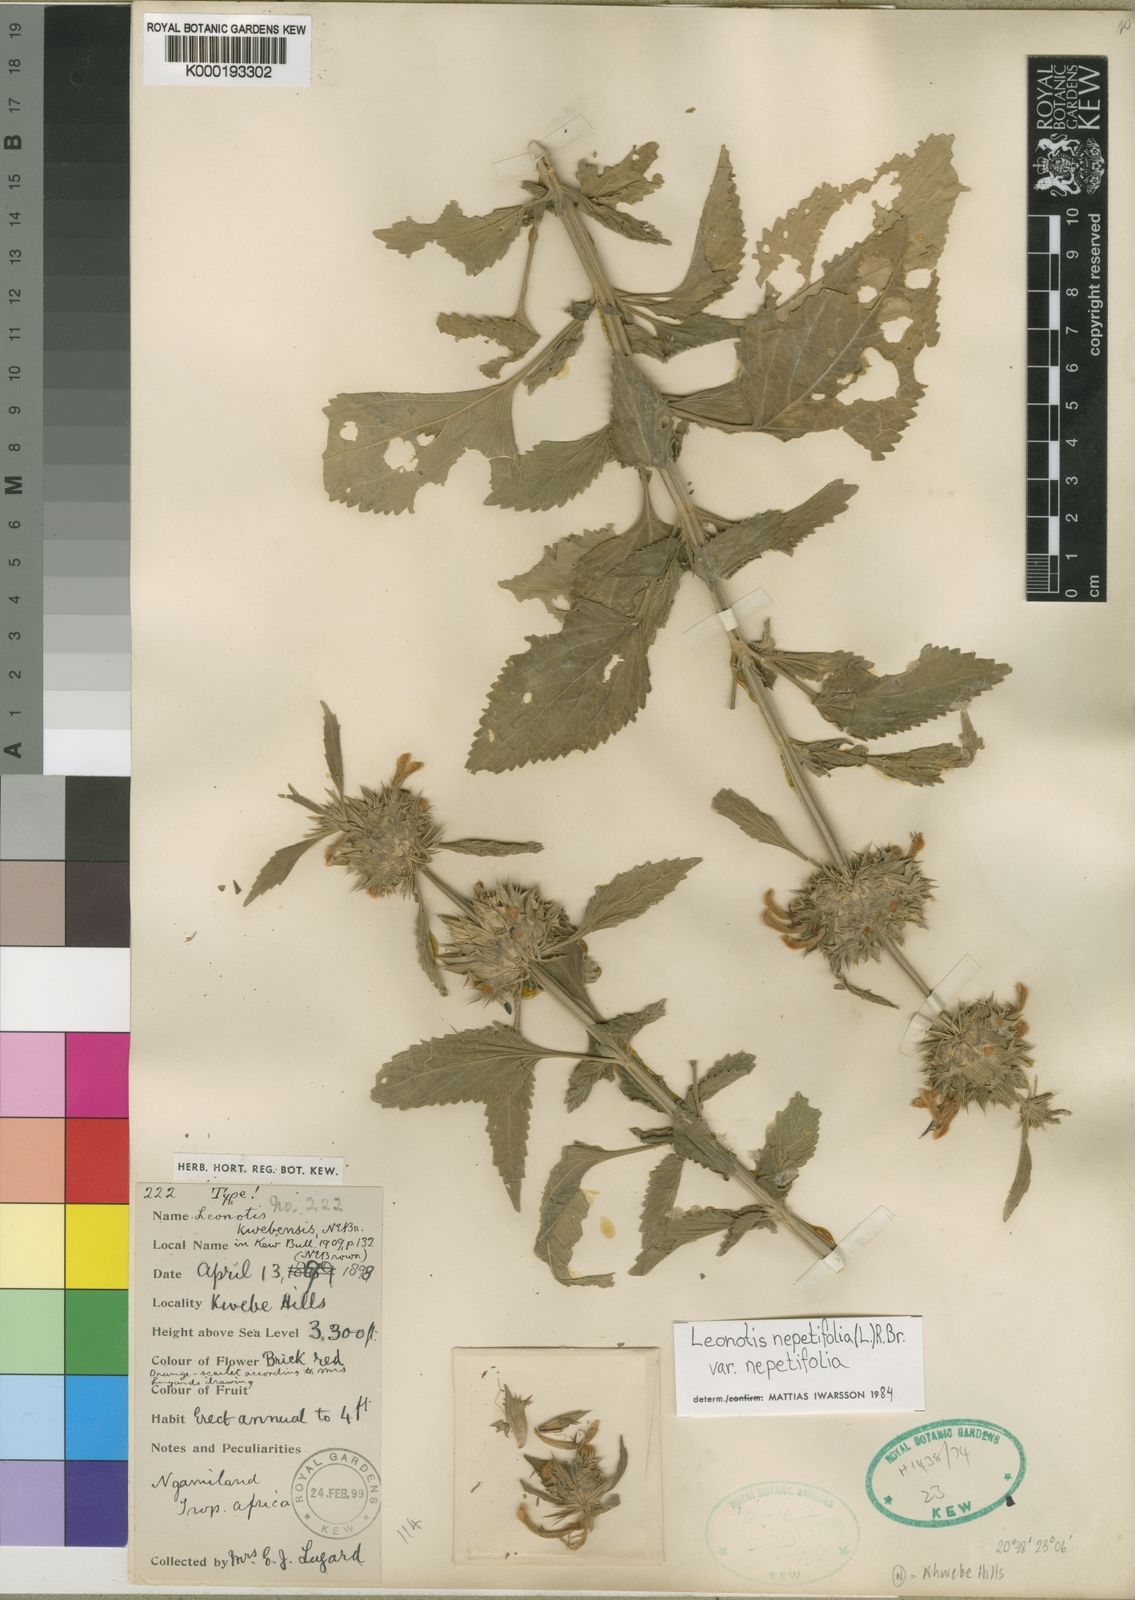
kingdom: Plantae
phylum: Tracheophyta
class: Magnoliopsida
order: Lamiales
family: Lamiaceae
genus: Leonotis
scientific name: Leonotis nepetifolia
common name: Christmas candlestick
